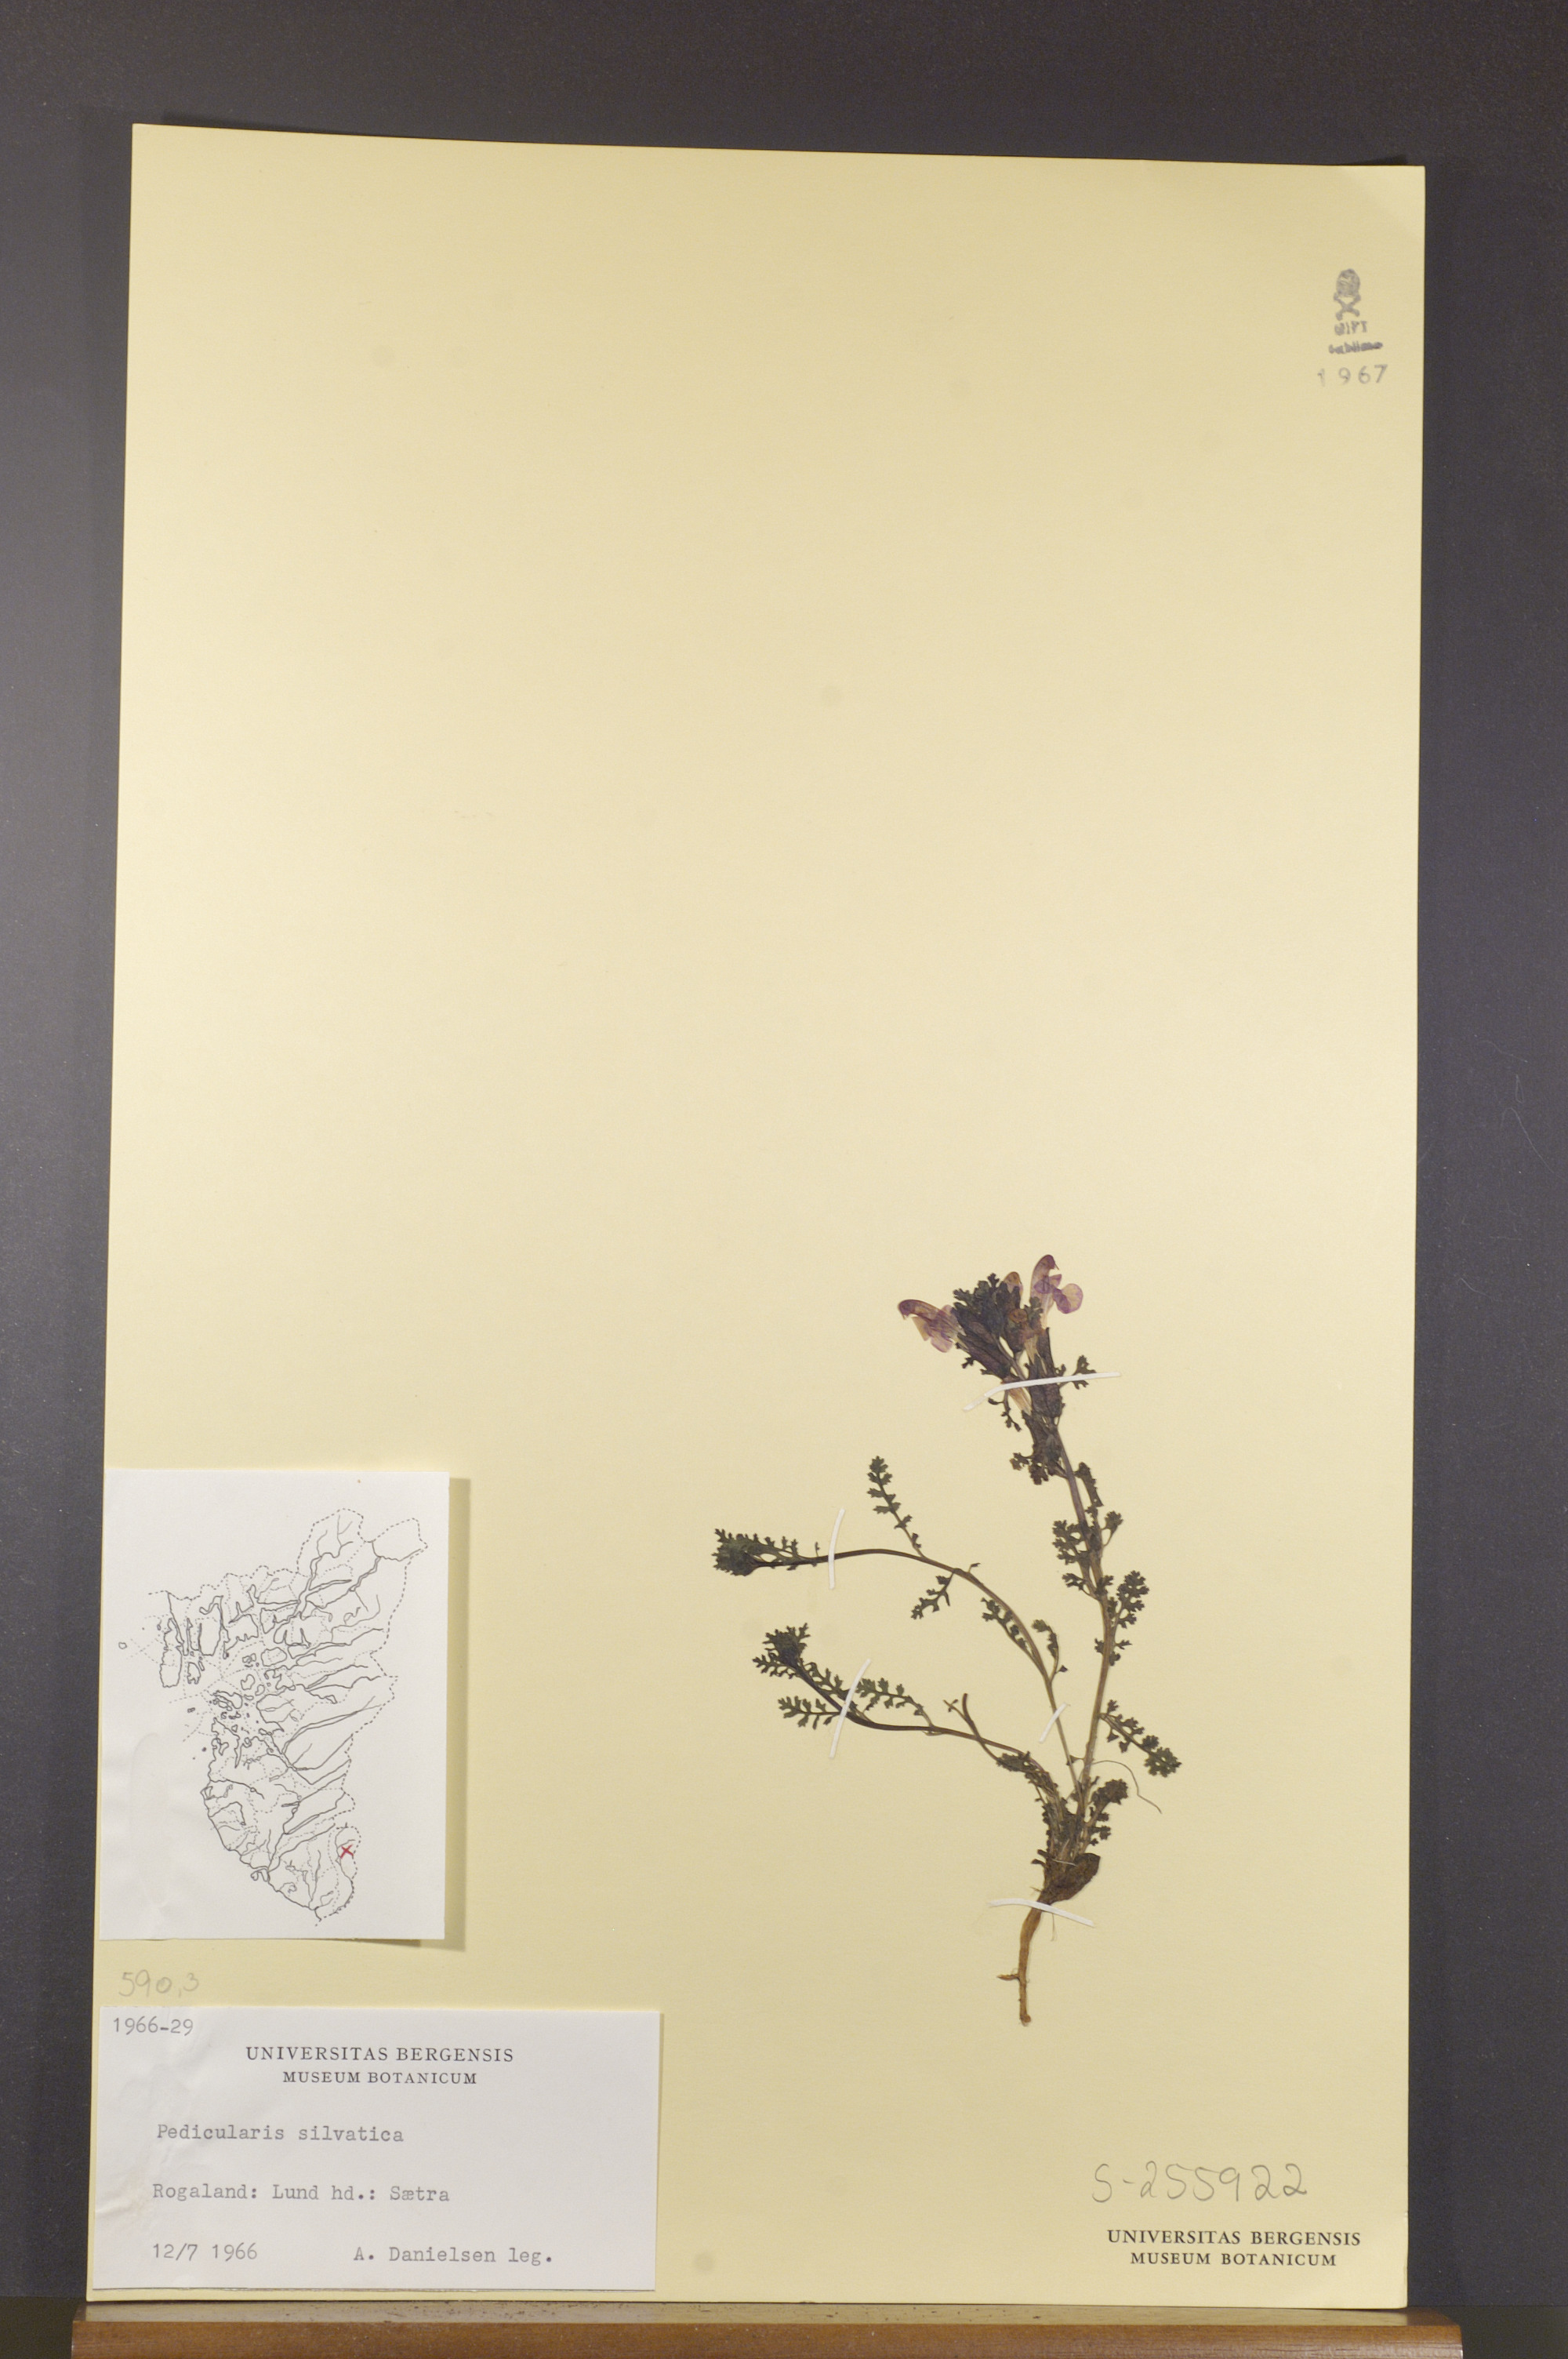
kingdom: Plantae
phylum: Tracheophyta
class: Magnoliopsida
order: Lamiales
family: Orobanchaceae
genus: Pedicularis
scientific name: Pedicularis sylvatica
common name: Lousewort
